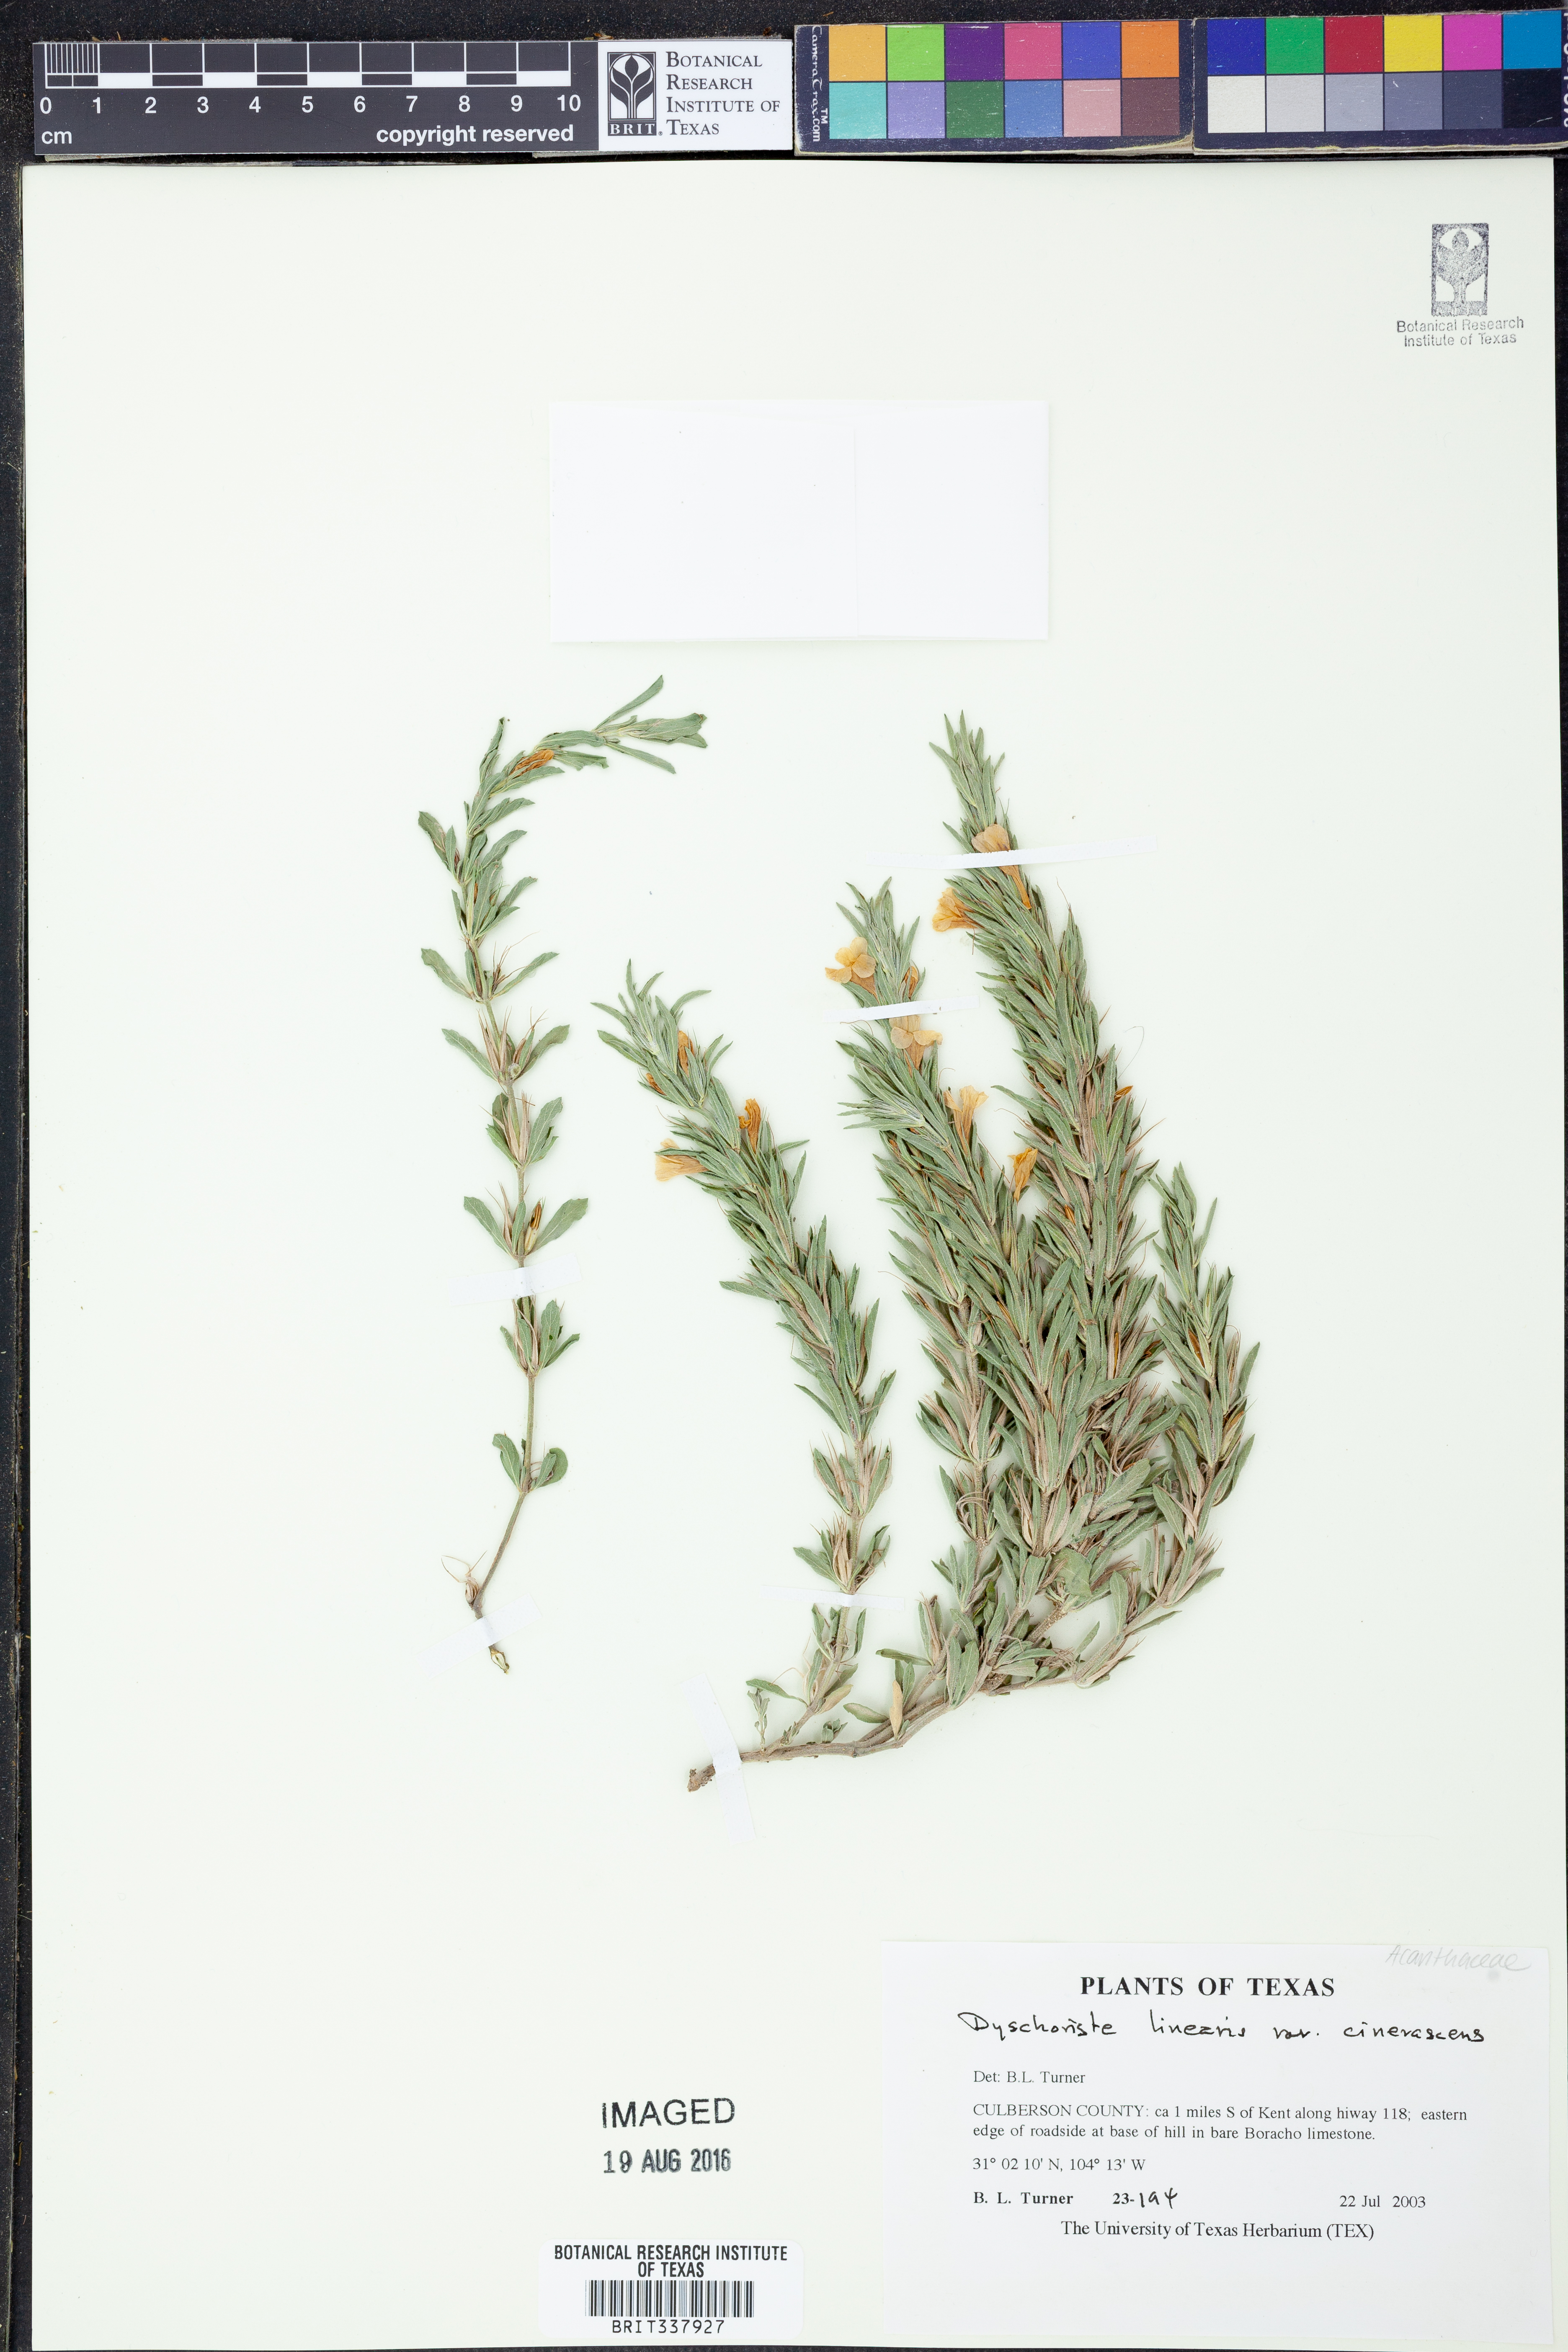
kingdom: Plantae
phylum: Tracheophyta
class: Magnoliopsida
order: Lamiales
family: Acanthaceae
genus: Dyschoriste
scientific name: Dyschoriste cinerascens
